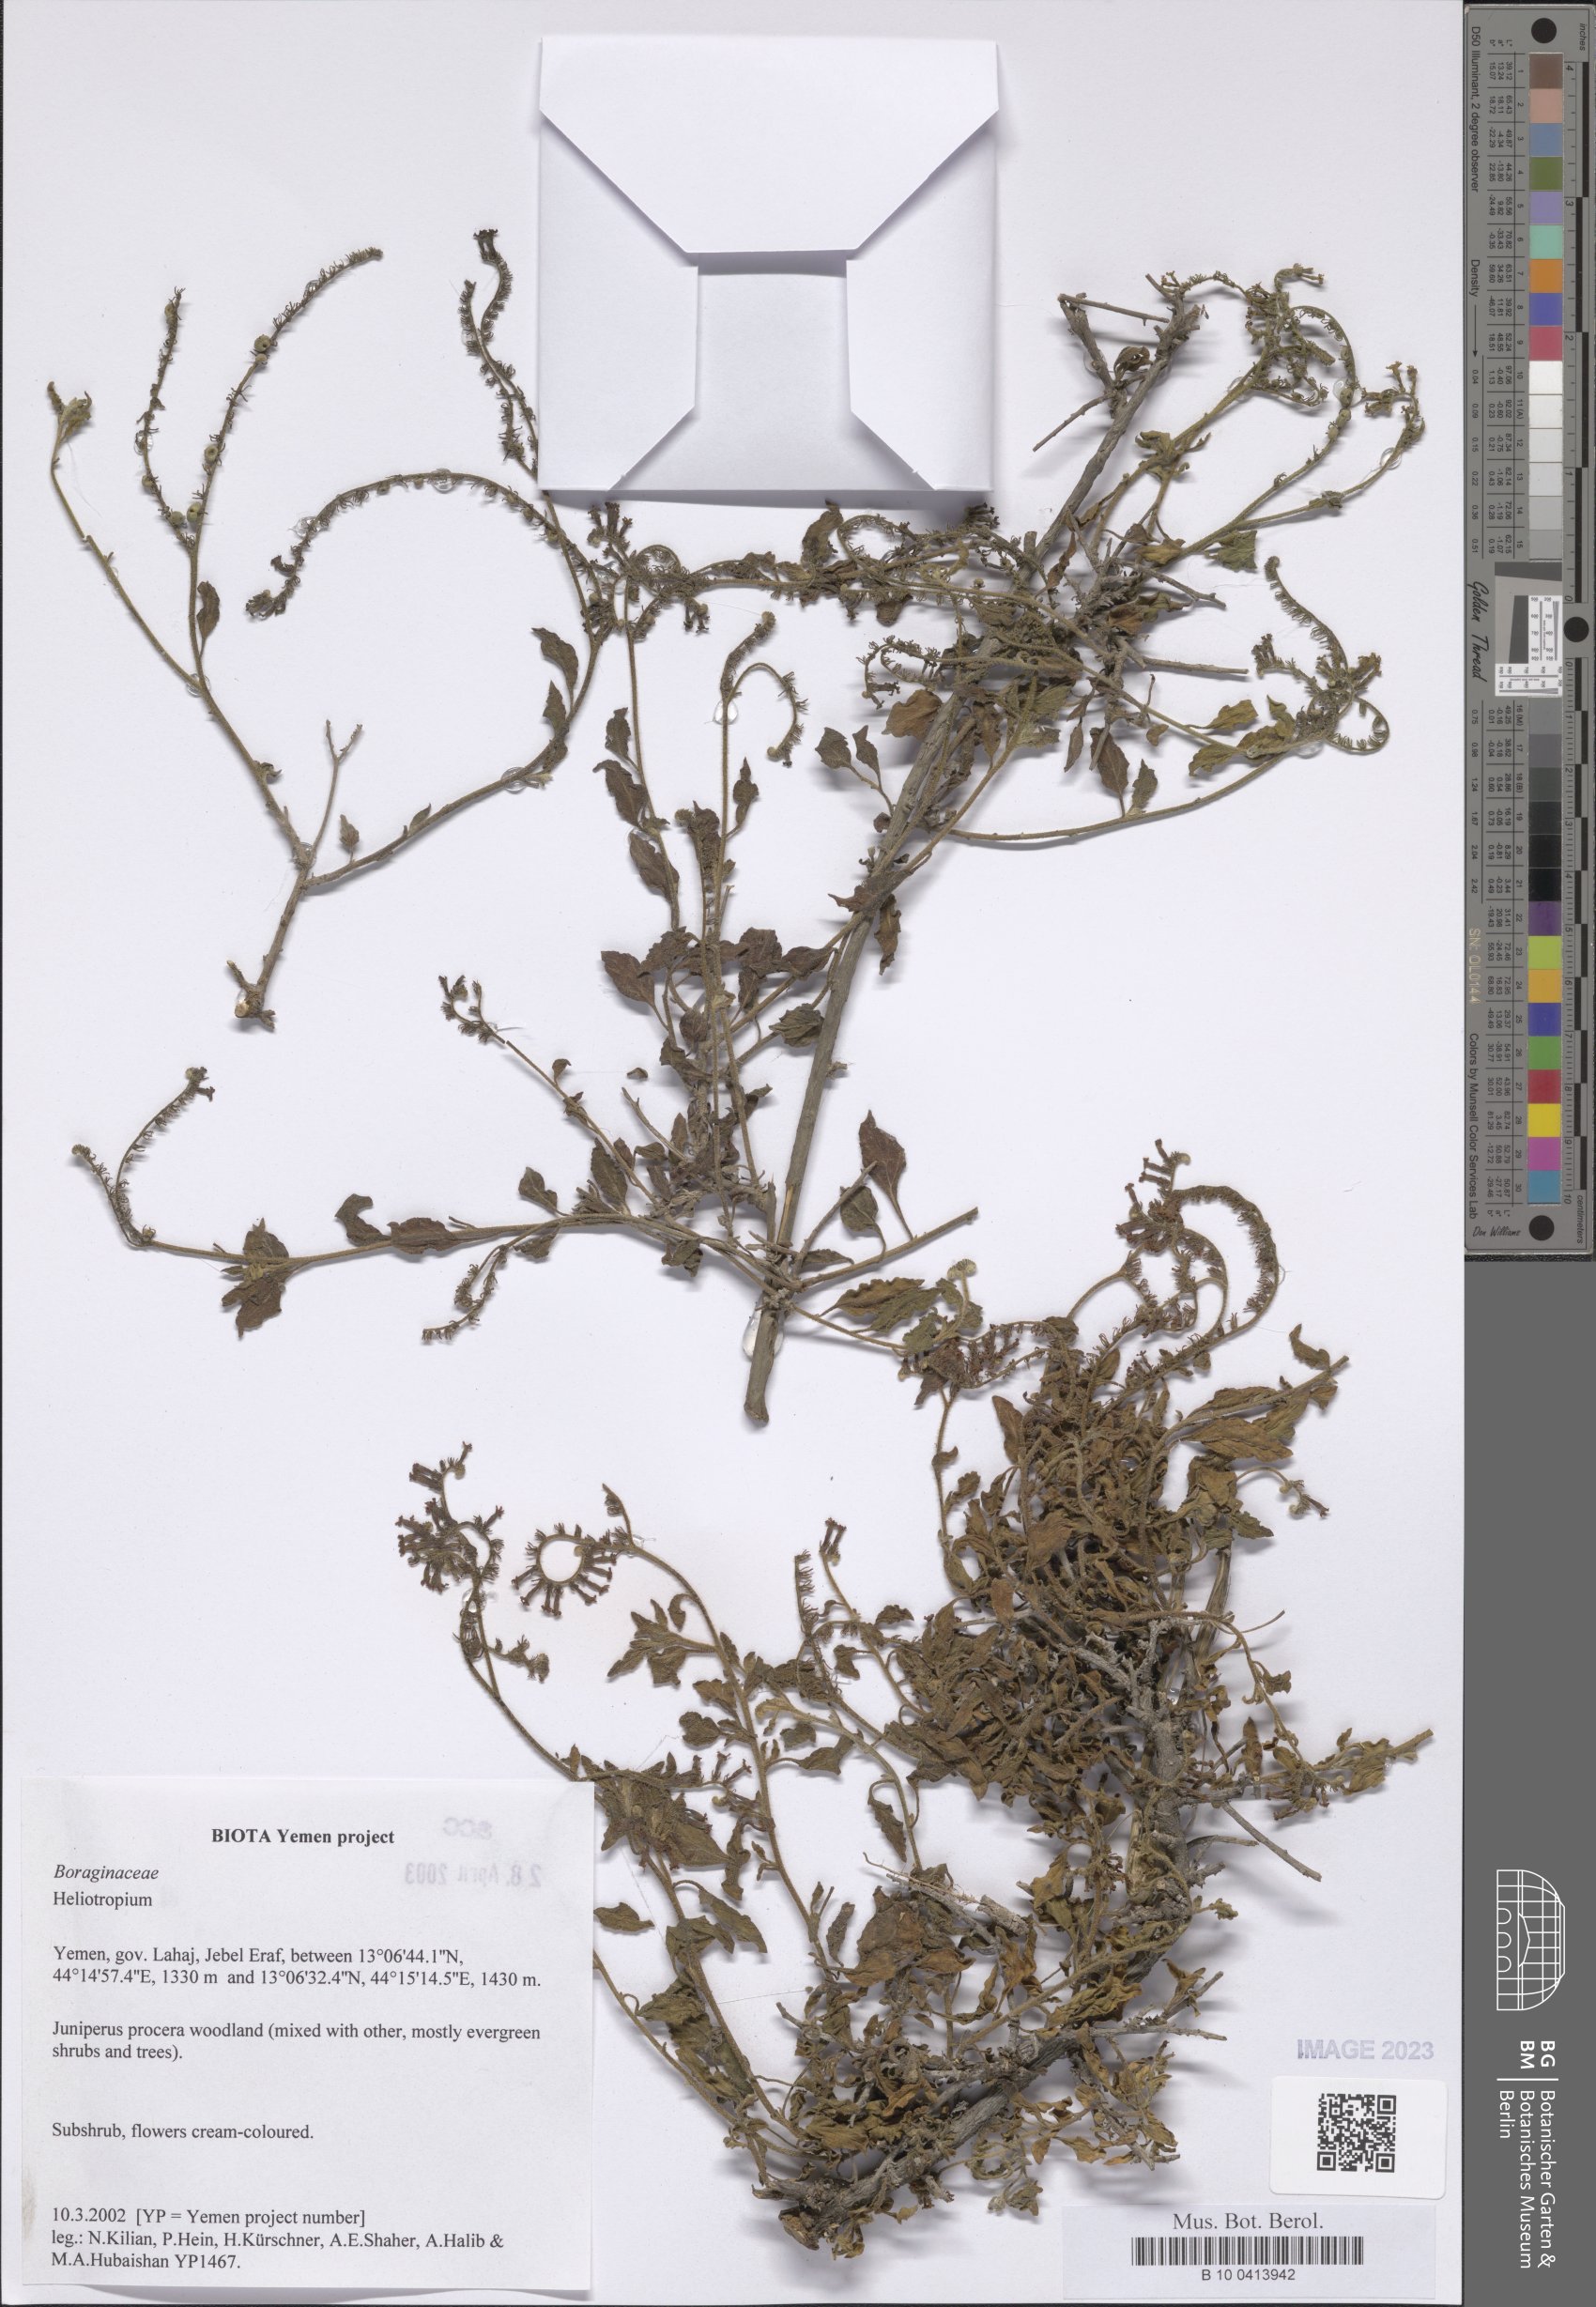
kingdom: Plantae
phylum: Tracheophyta
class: Magnoliopsida
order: Boraginales
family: Heliotropiaceae
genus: Heliotropium
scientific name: Heliotropium
